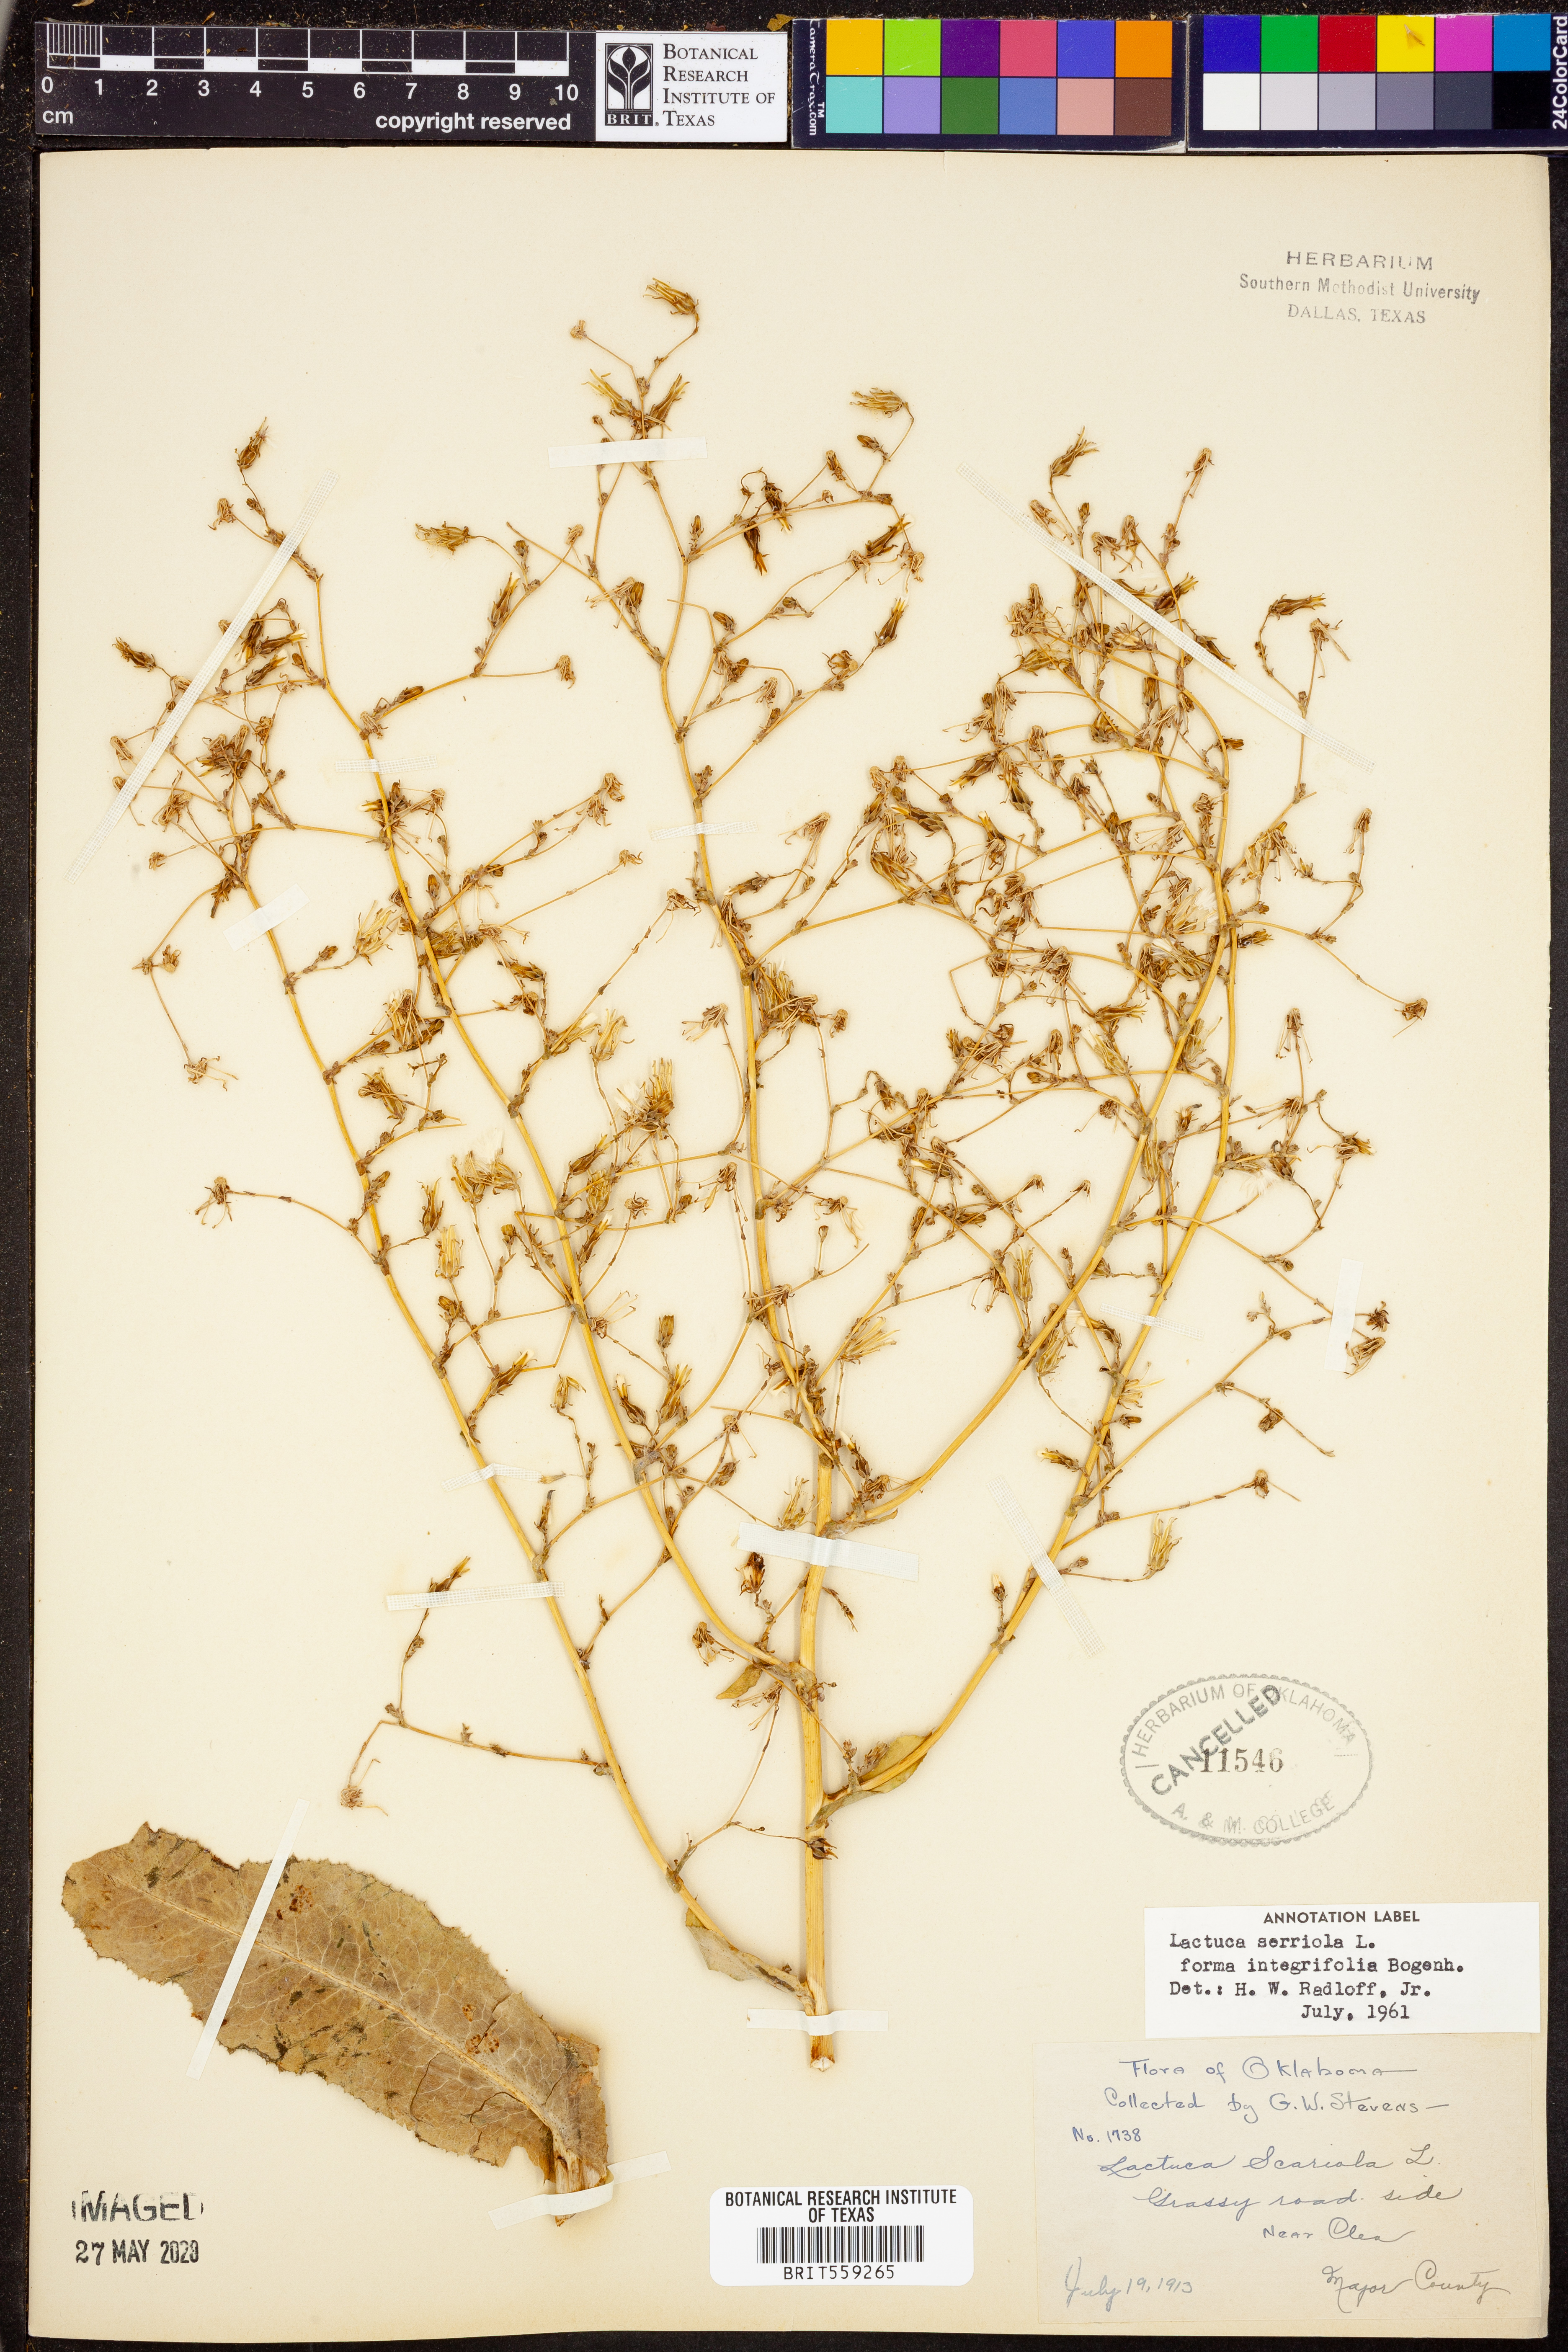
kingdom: Plantae
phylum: Tracheophyta
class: Magnoliopsida
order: Asterales
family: Asteraceae
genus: Lactuca
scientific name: Lactuca serriola
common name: Prickly lettuce
